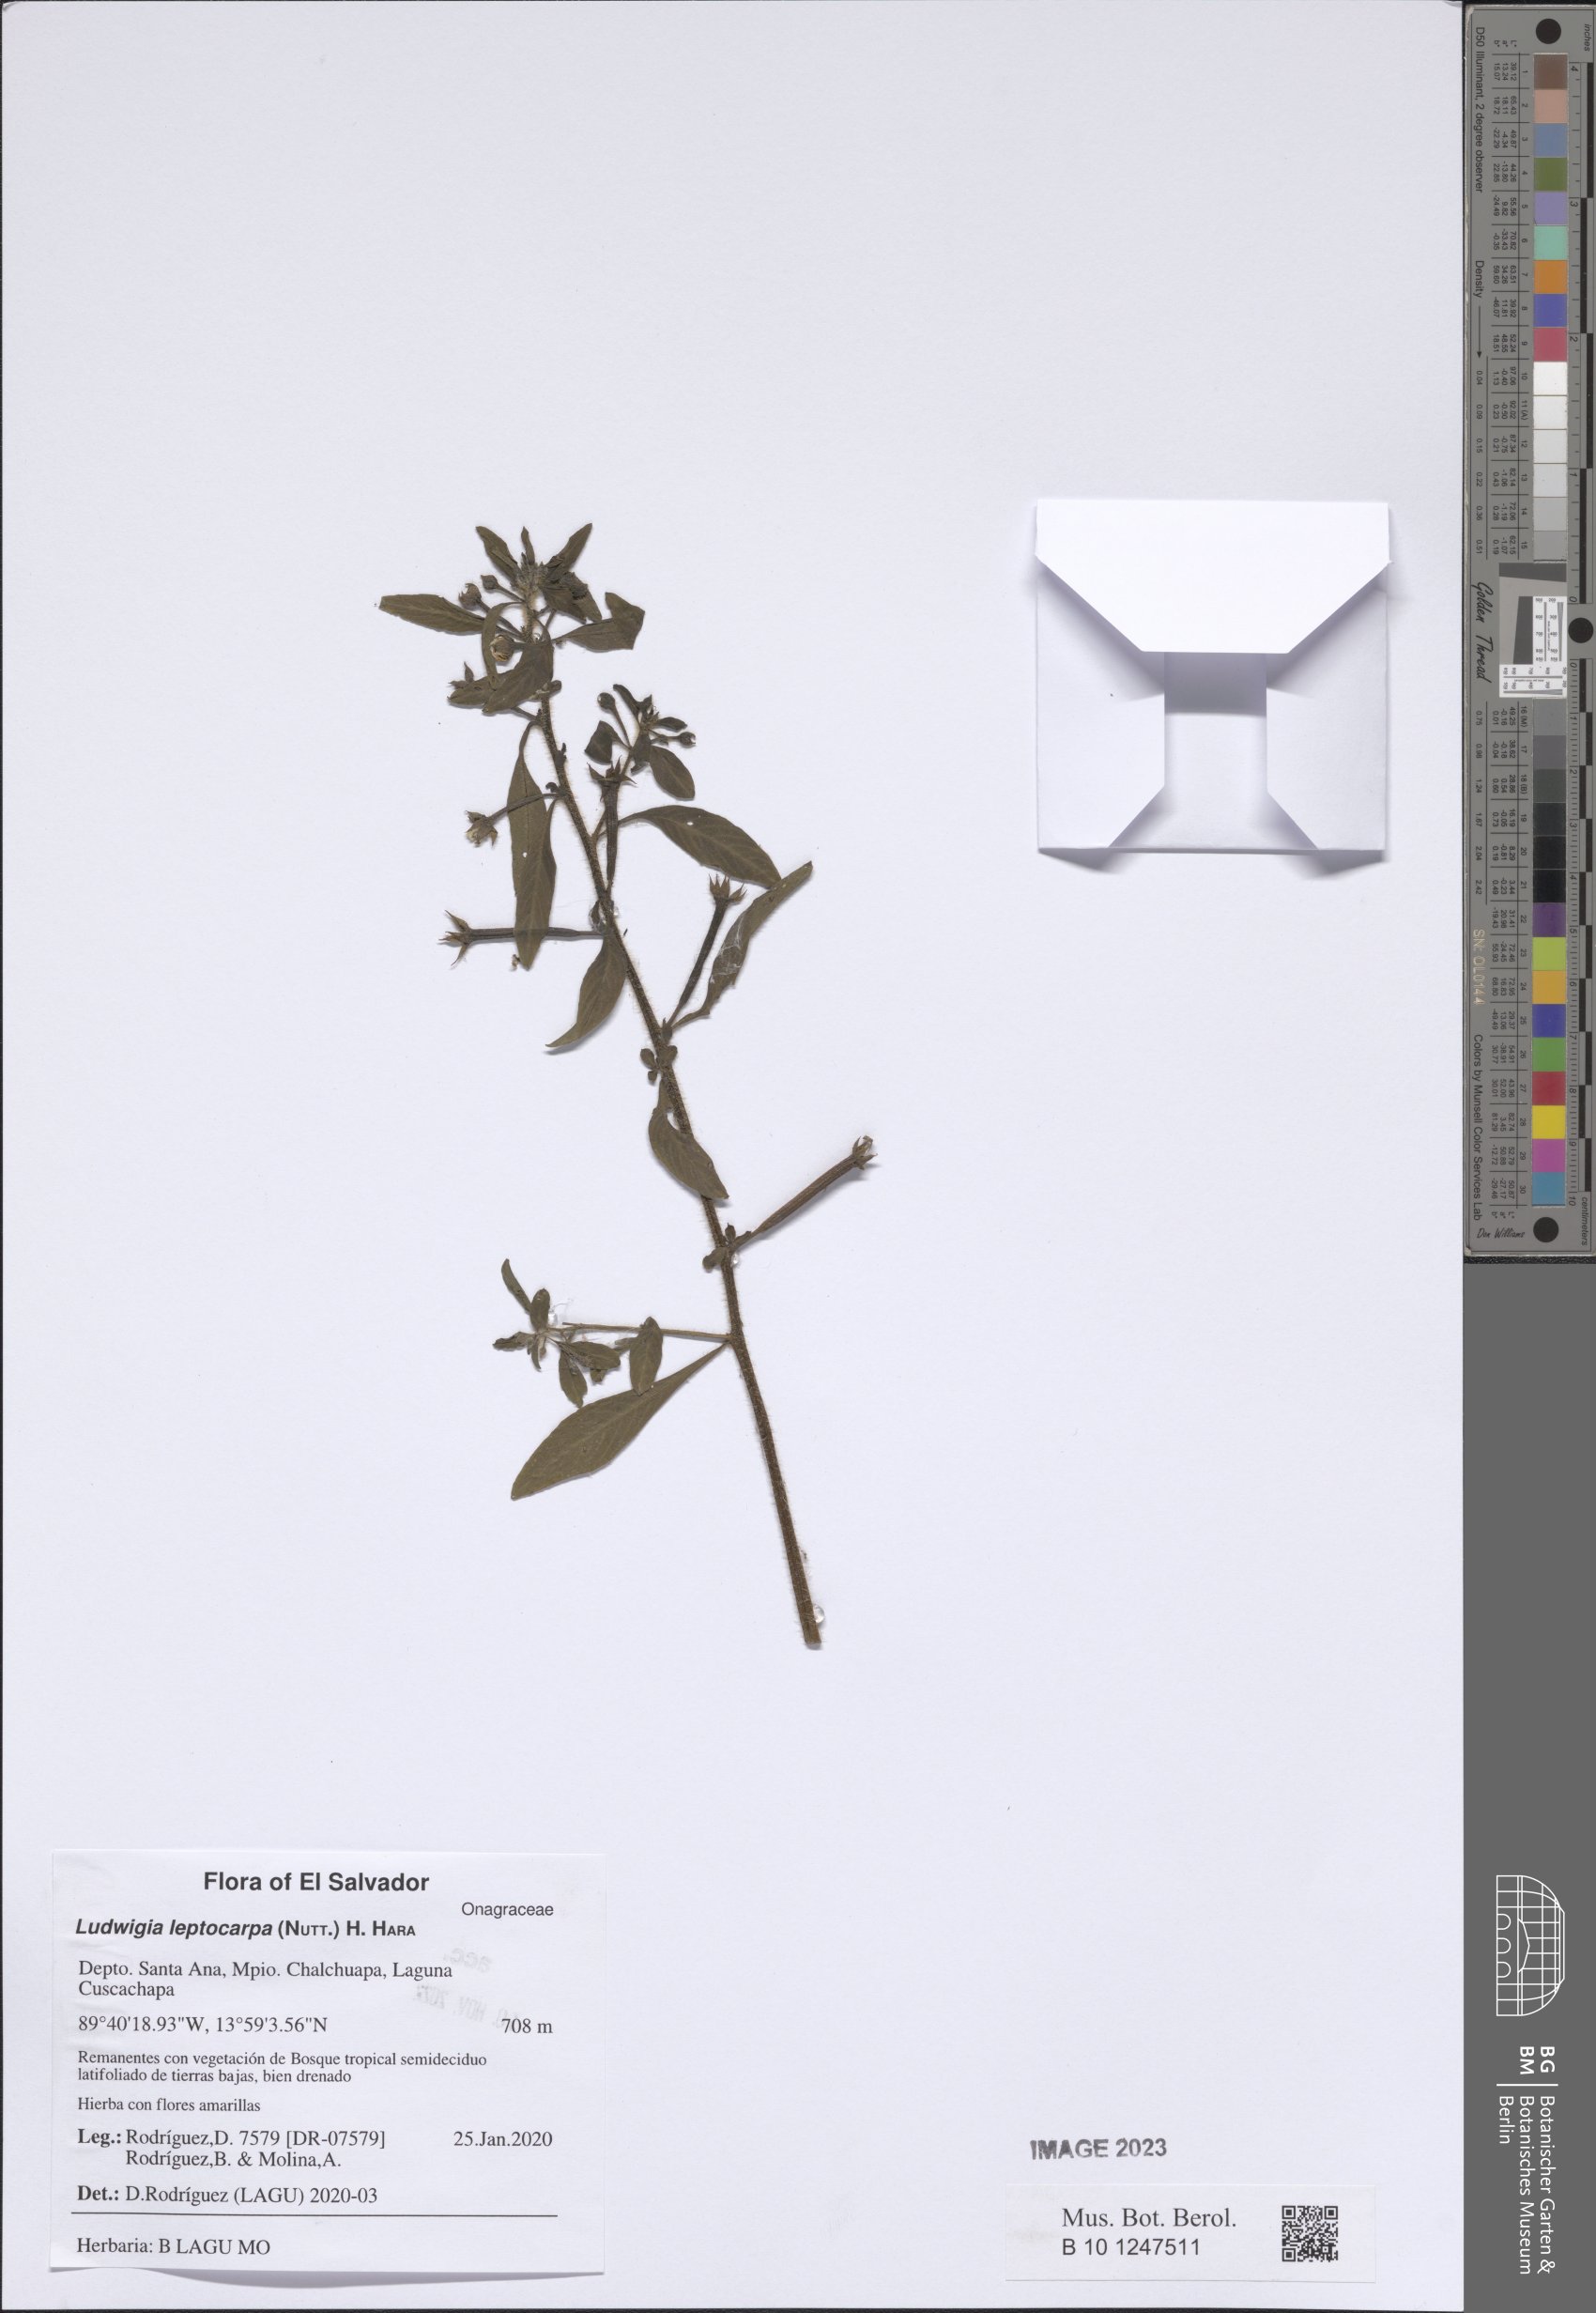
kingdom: Plantae
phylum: Tracheophyta
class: Magnoliopsida
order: Myrtales
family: Onagraceae
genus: Ludwigia
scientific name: Ludwigia leptocarpa
